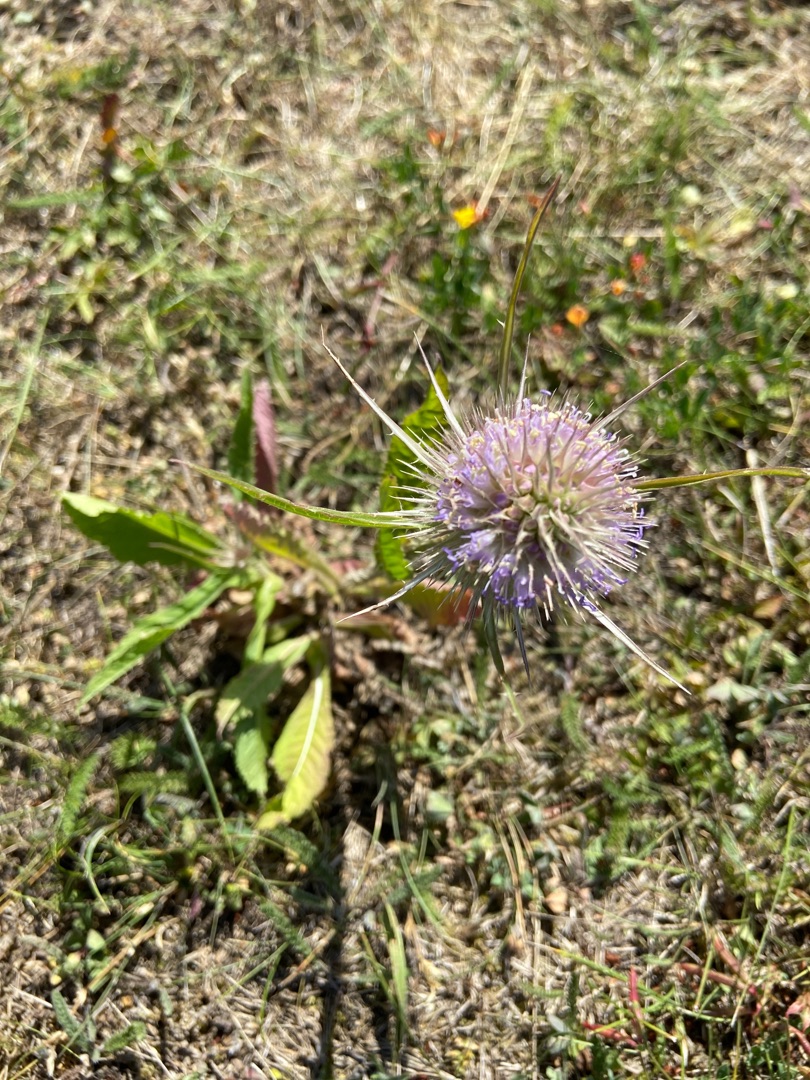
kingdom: Plantae
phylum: Tracheophyta
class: Magnoliopsida
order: Dipsacales
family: Caprifoliaceae
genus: Dipsacus
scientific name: Dipsacus fullonum
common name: Gærde-kartebolle
